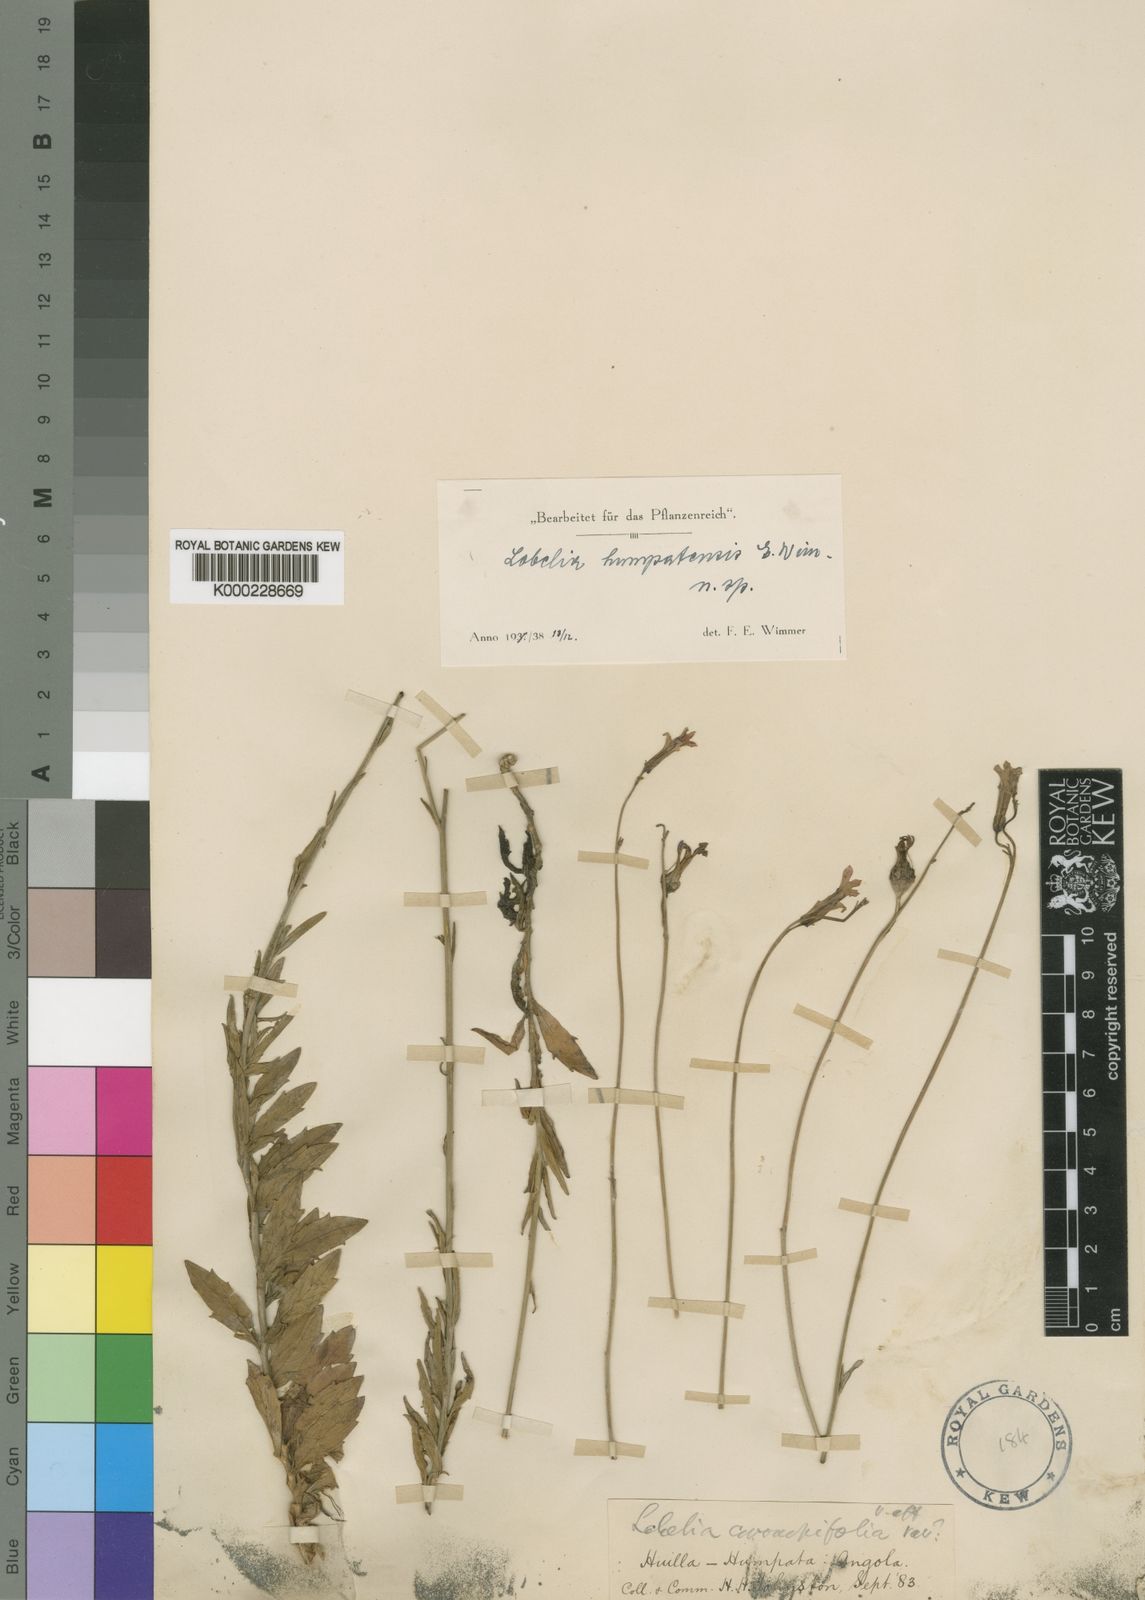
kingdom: Plantae
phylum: Tracheophyta
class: Magnoliopsida
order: Asterales
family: Campanulaceae
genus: Lobelia
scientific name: Lobelia humpatensis
